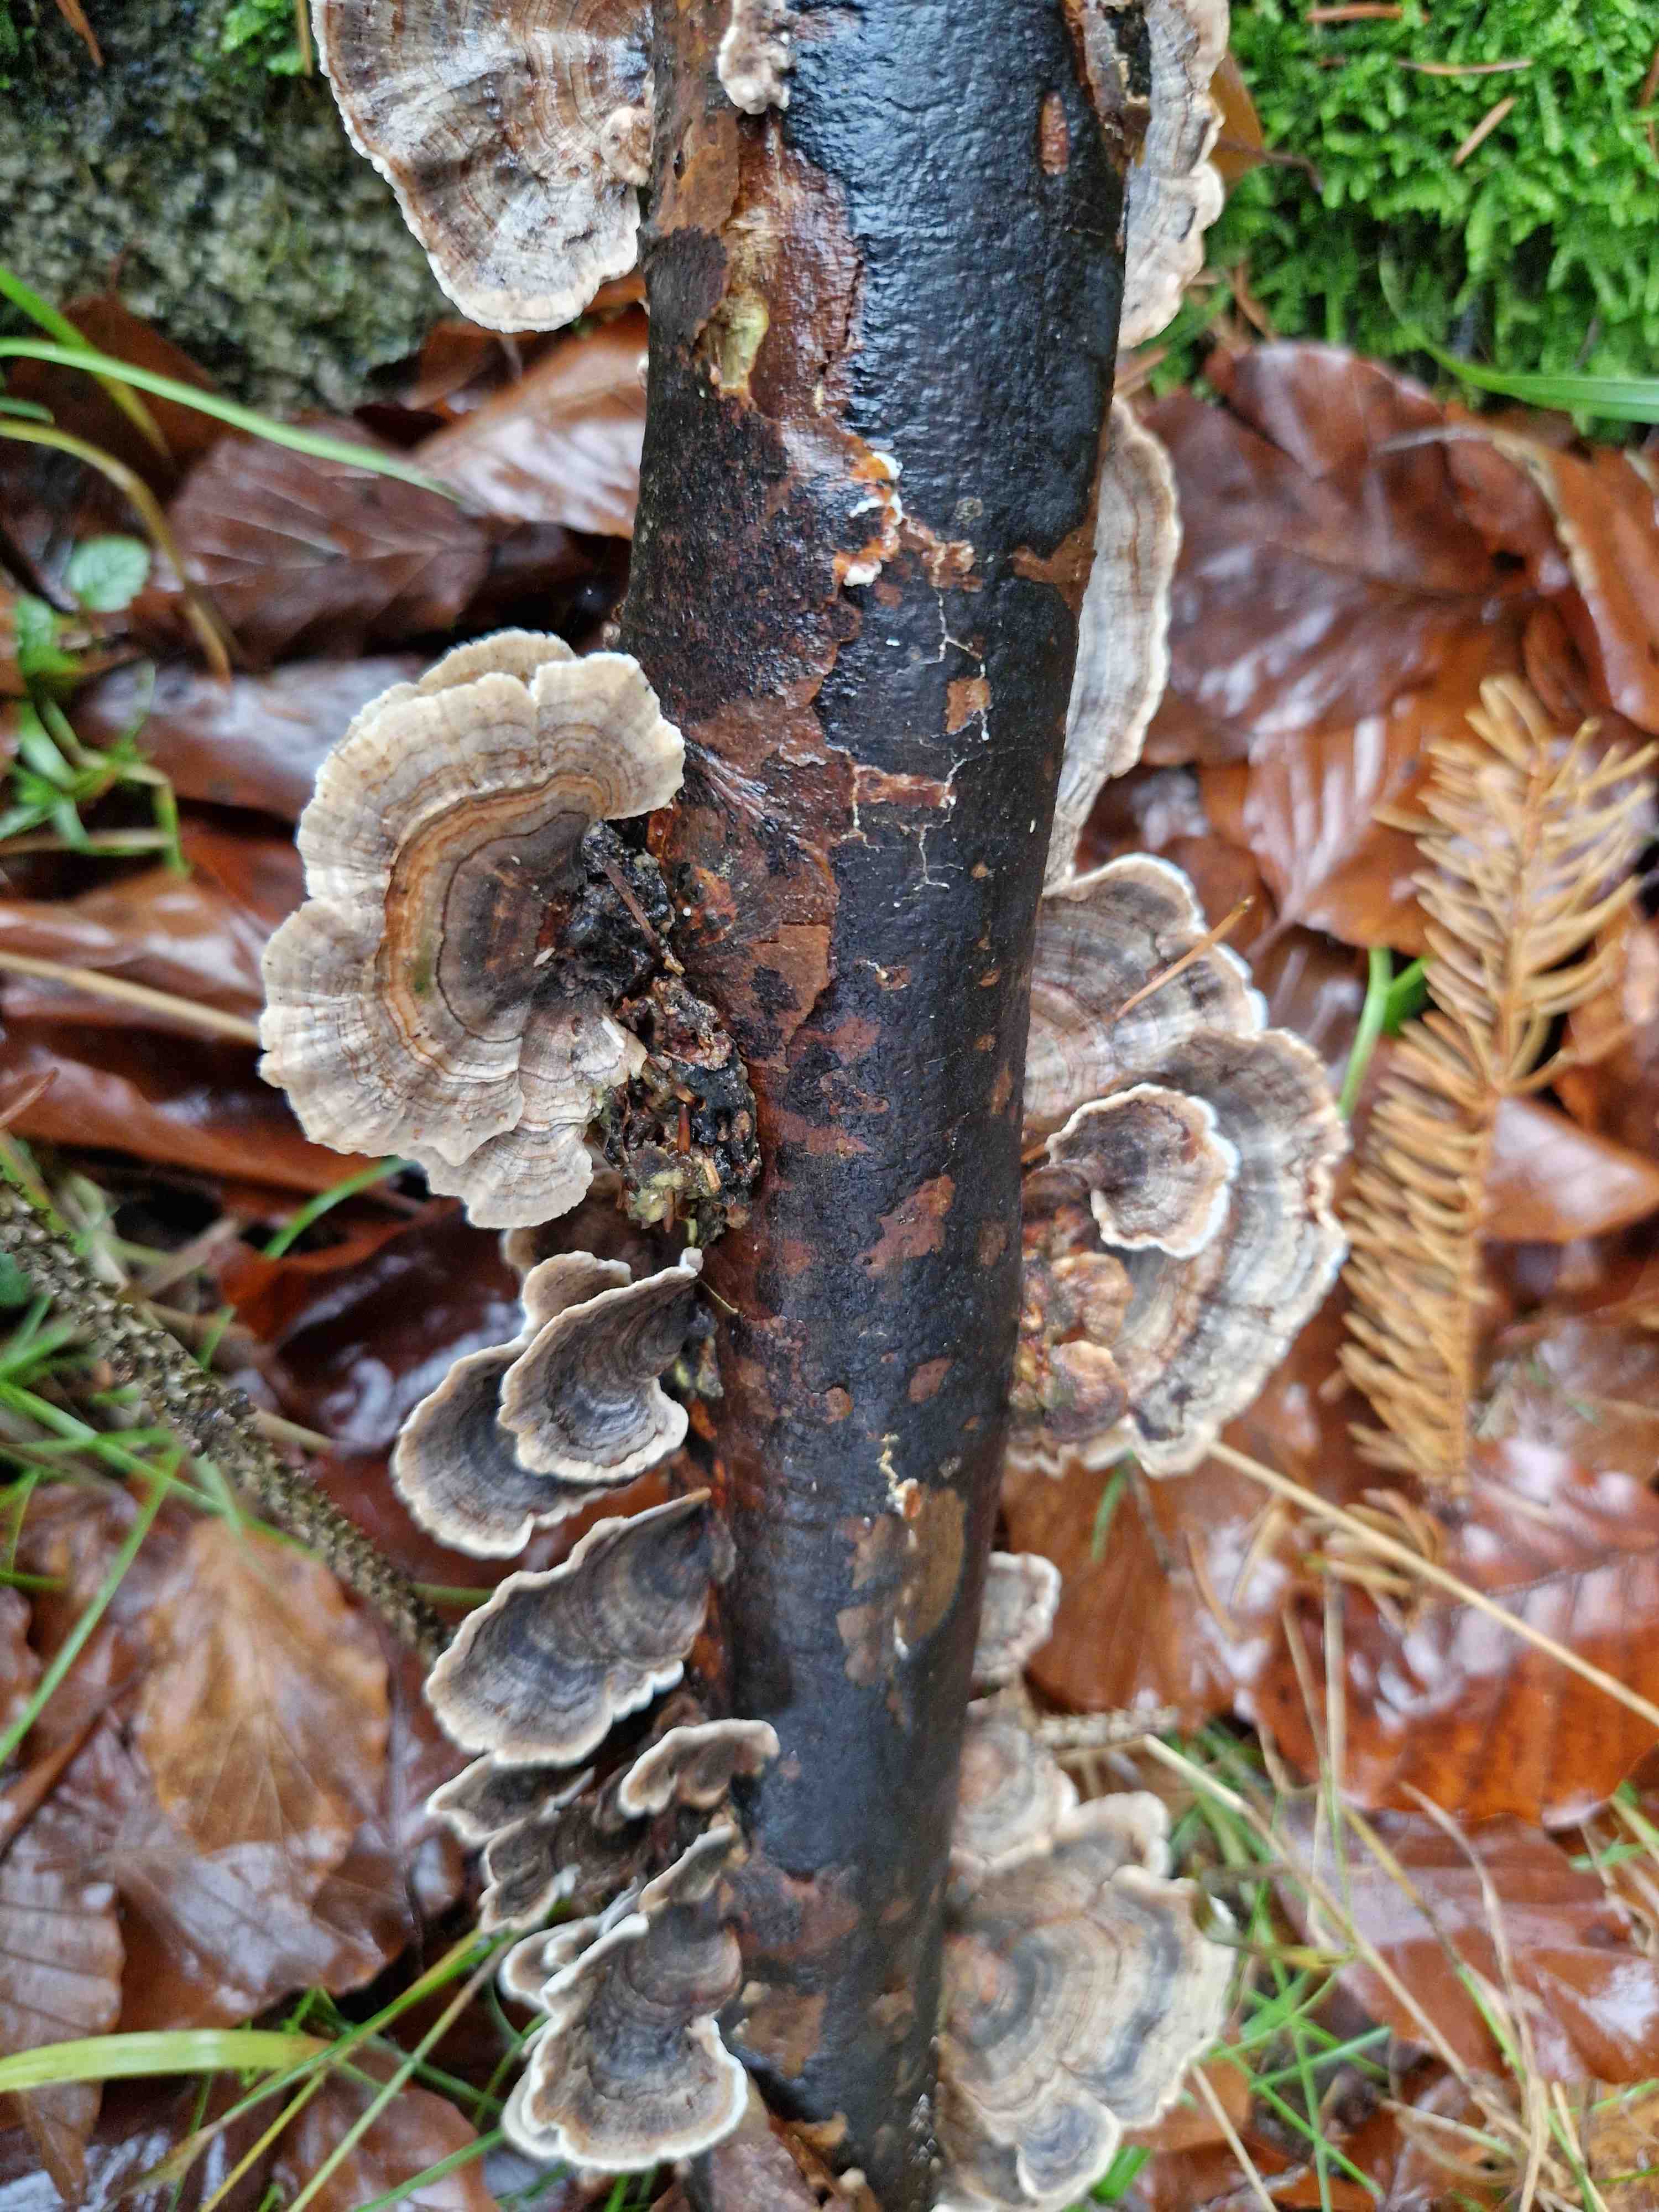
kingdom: Fungi
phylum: Basidiomycota
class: Agaricomycetes
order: Polyporales
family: Polyporaceae
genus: Trametes
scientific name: Trametes versicolor
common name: broget læderporesvamp
